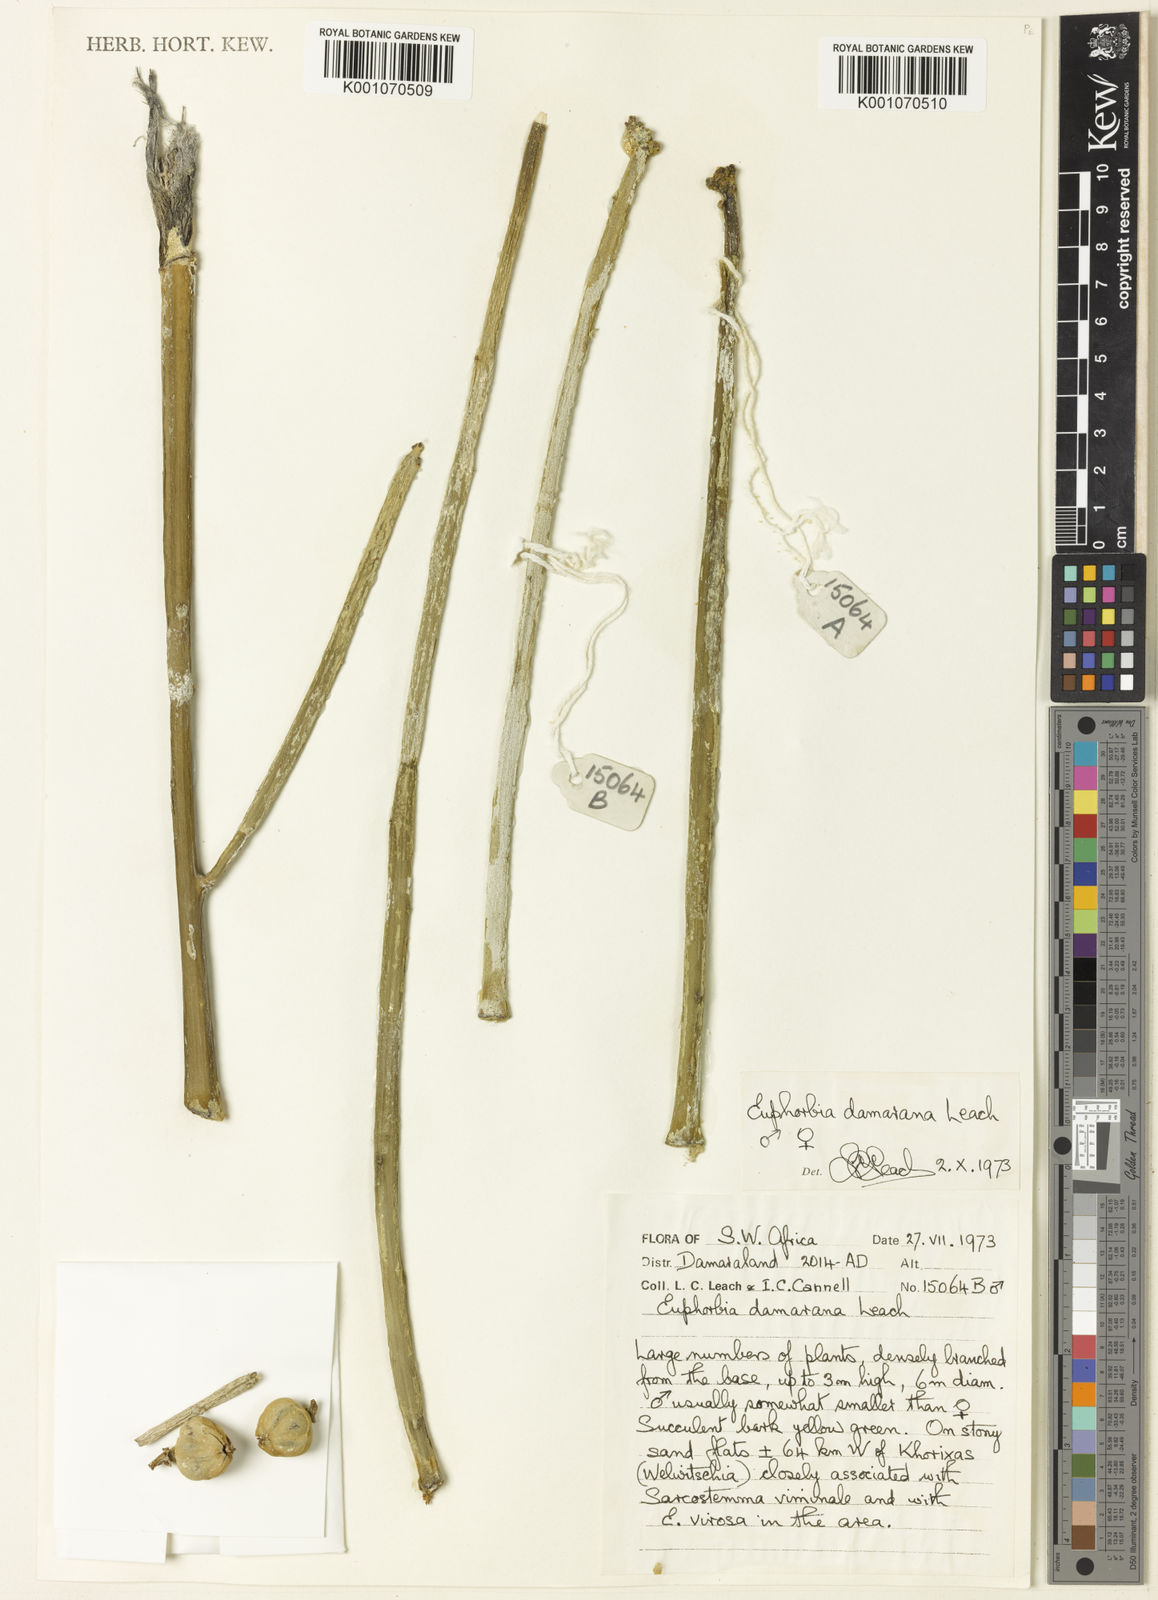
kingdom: Plantae
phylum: Tracheophyta
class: Magnoliopsida
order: Malpighiales
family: Euphorbiaceae
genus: Euphorbia
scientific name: Euphorbia damarana
